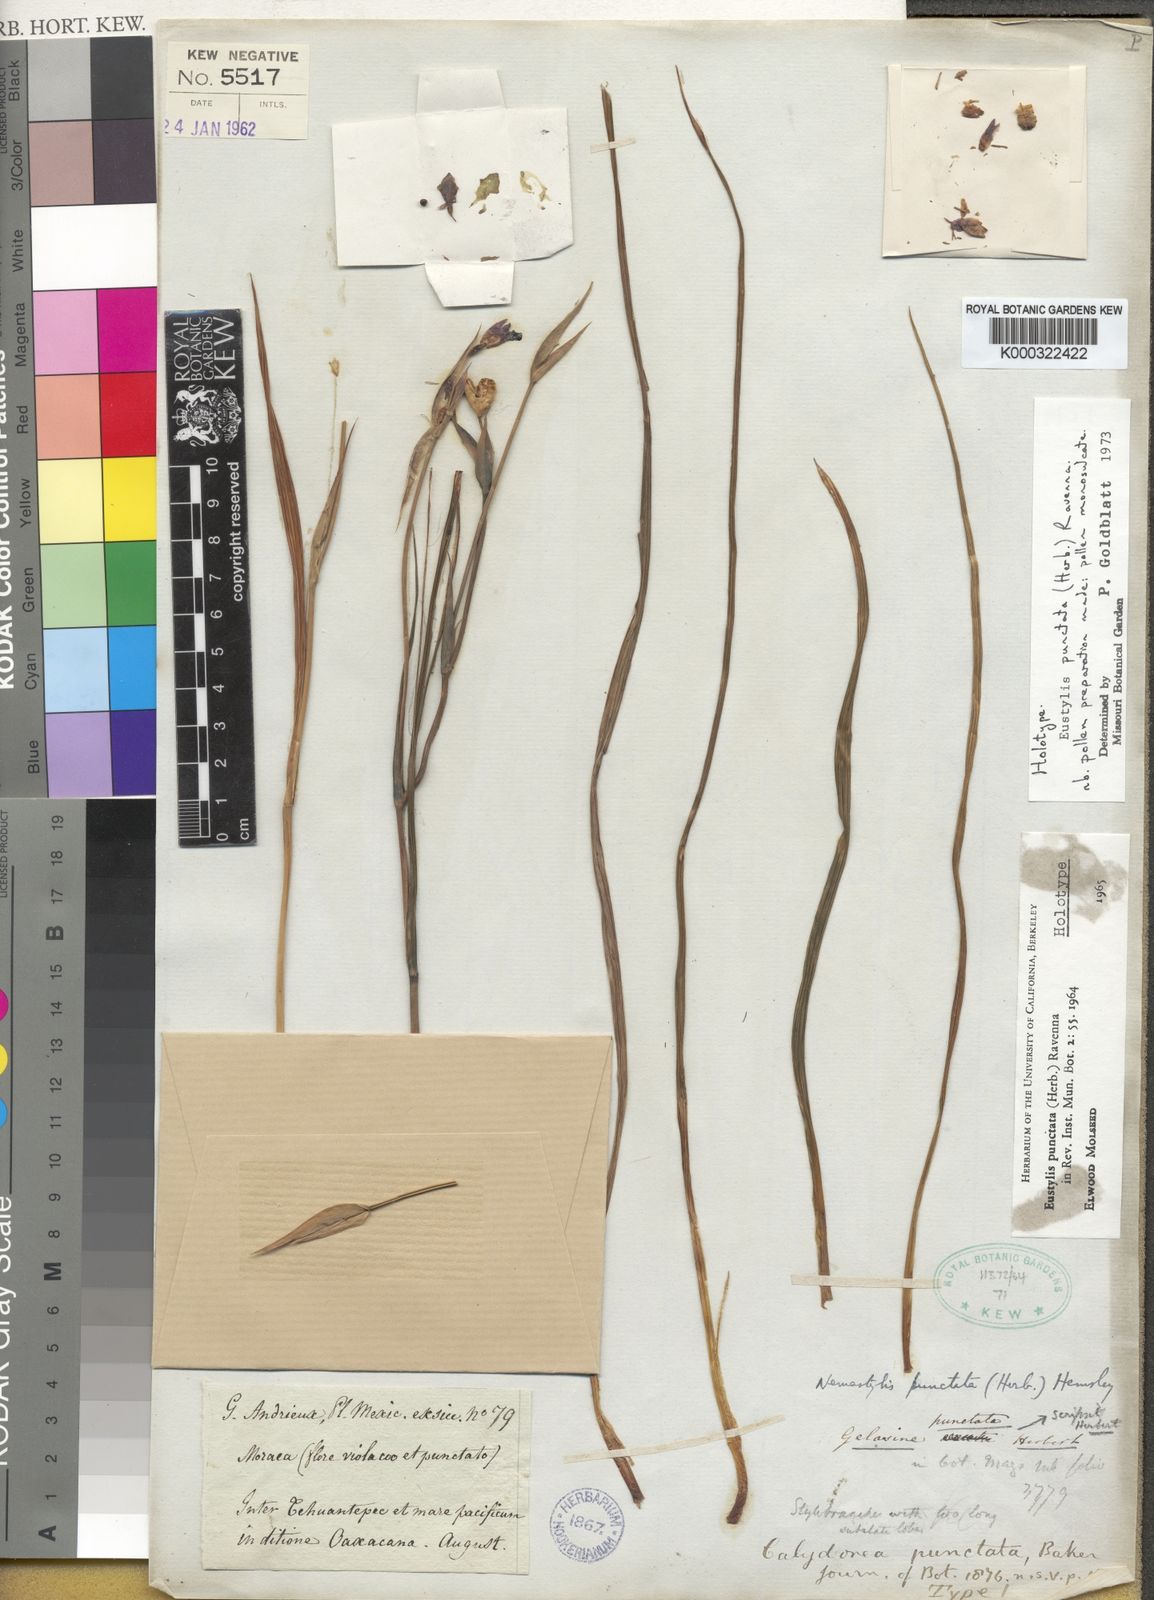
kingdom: Plantae
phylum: Tracheophyta
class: Liliopsida
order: Asparagales
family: Iridaceae
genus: Alophia
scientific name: Alophia drummondii
